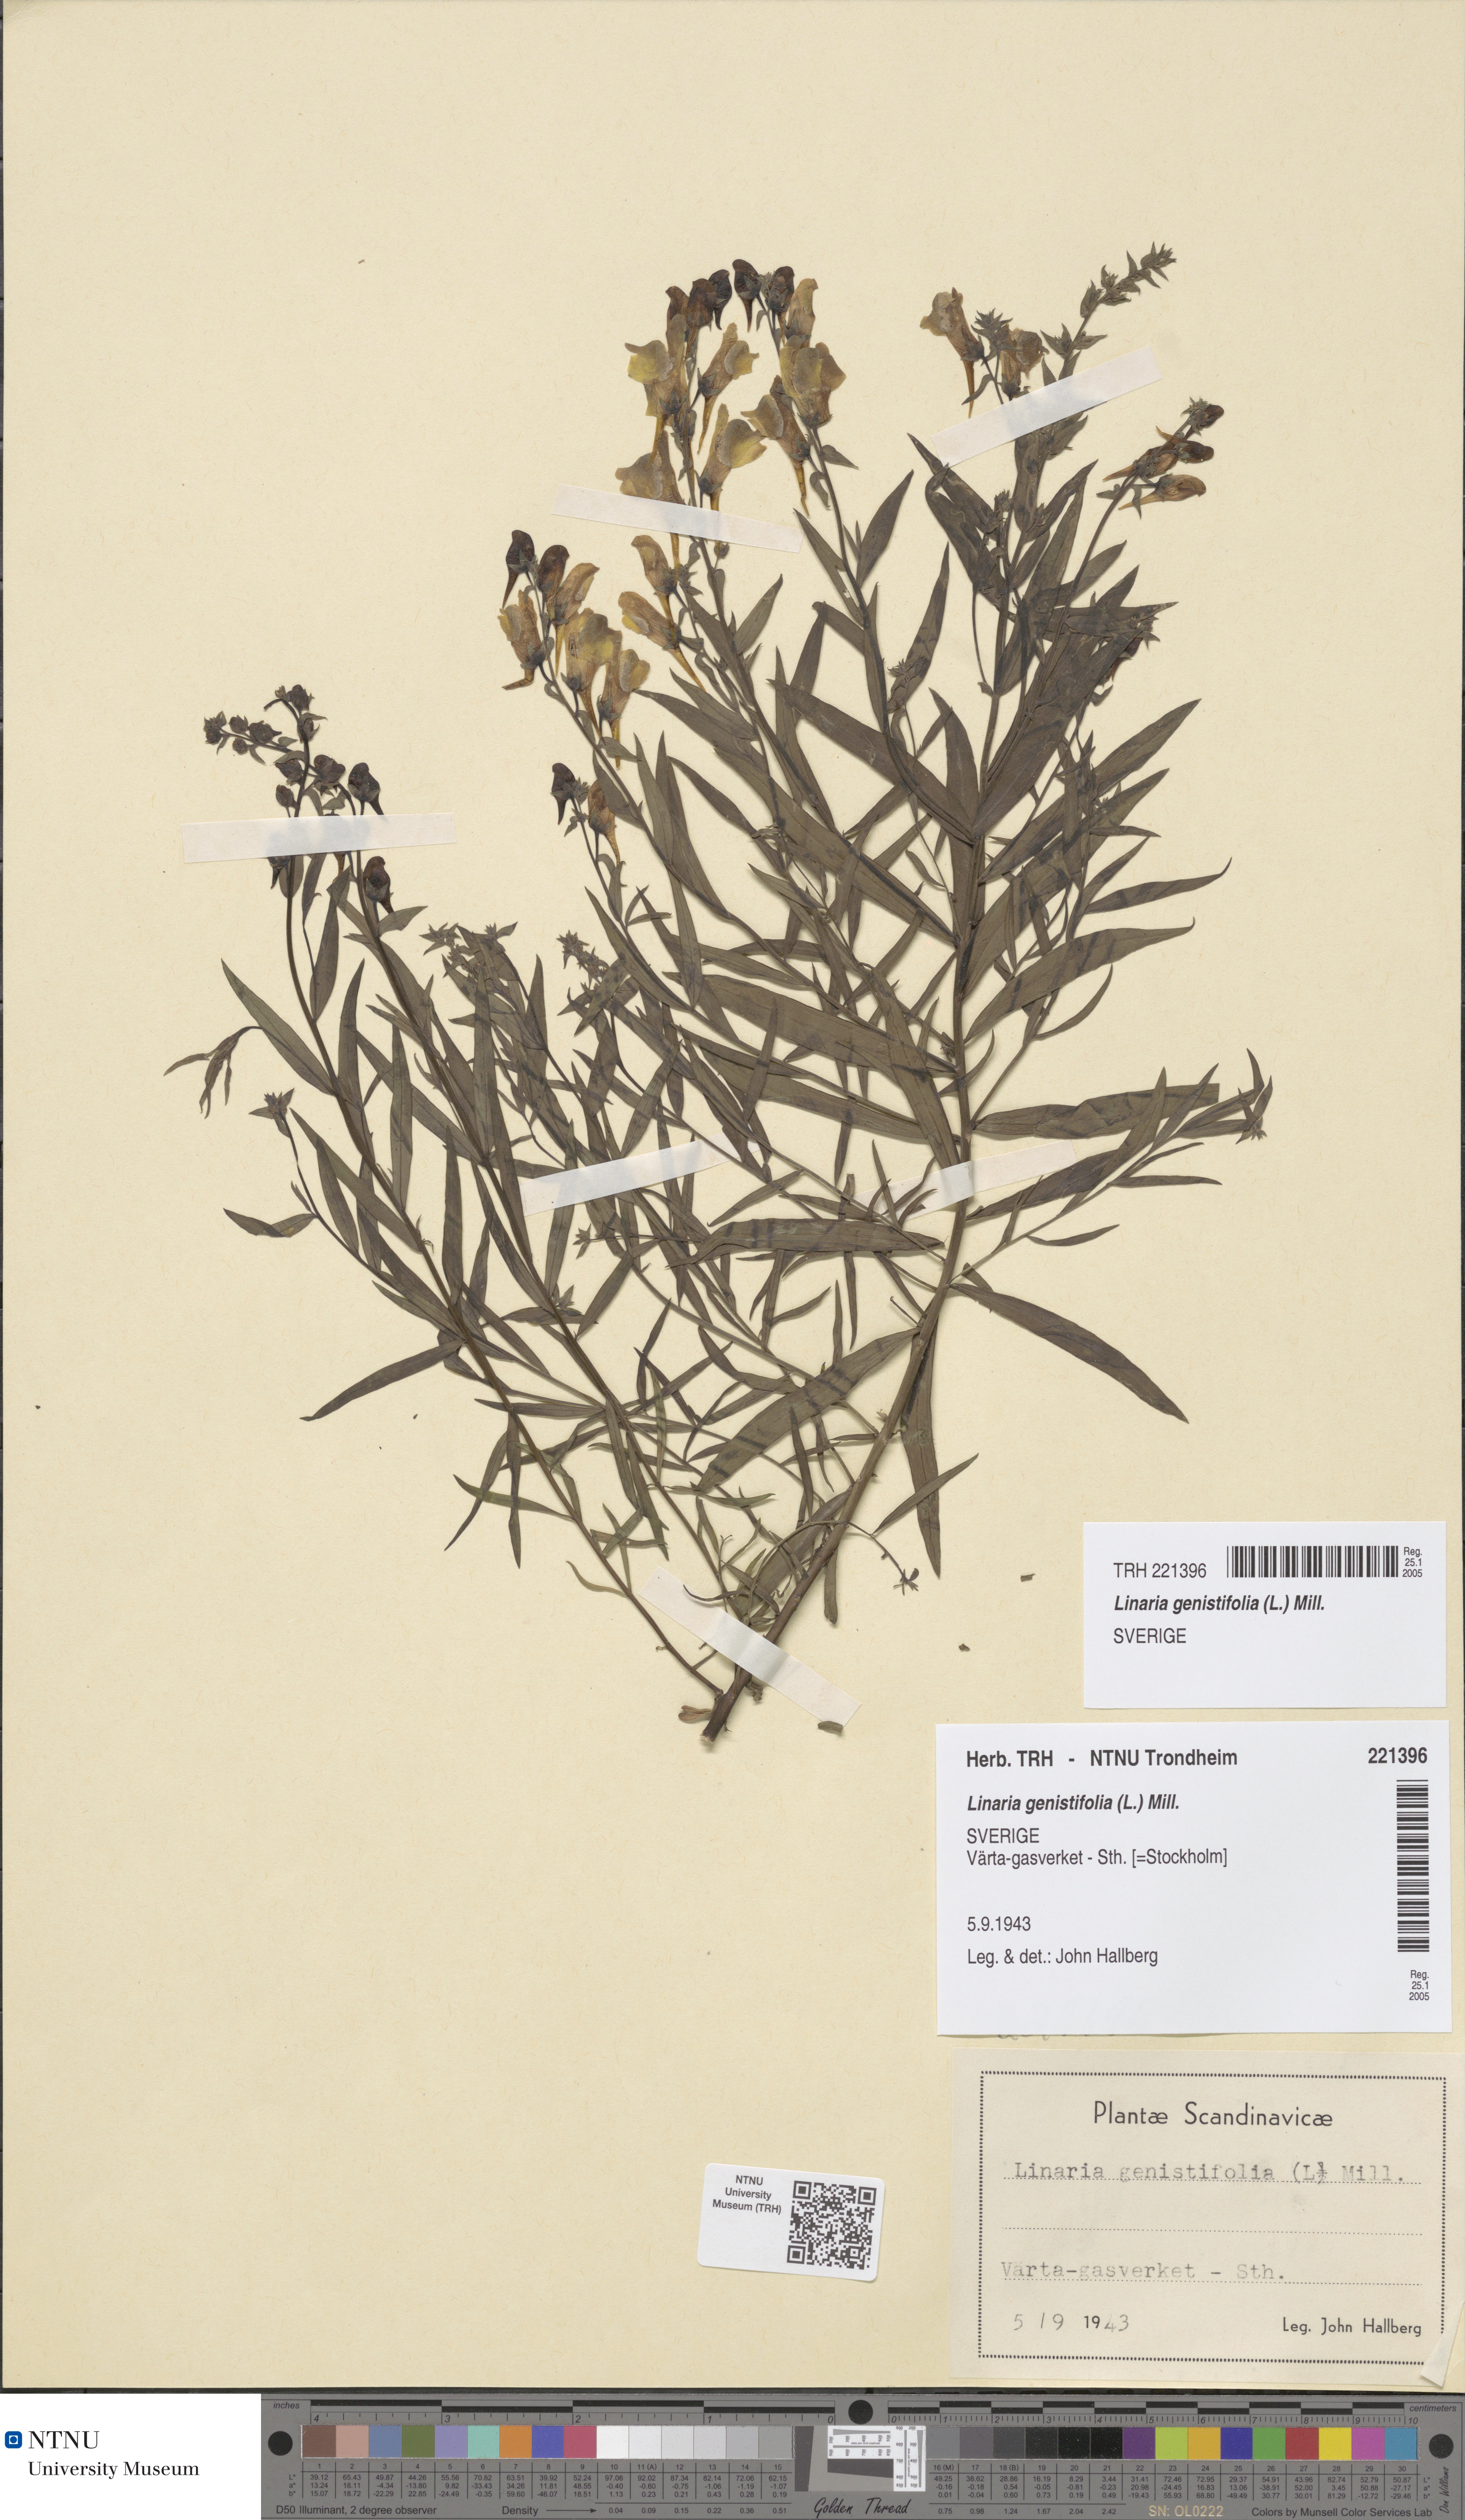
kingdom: Plantae
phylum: Tracheophyta
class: Magnoliopsida
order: Lamiales
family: Plantaginaceae
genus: Linaria
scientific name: Linaria genistifolia
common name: Broomleaf toadflax
